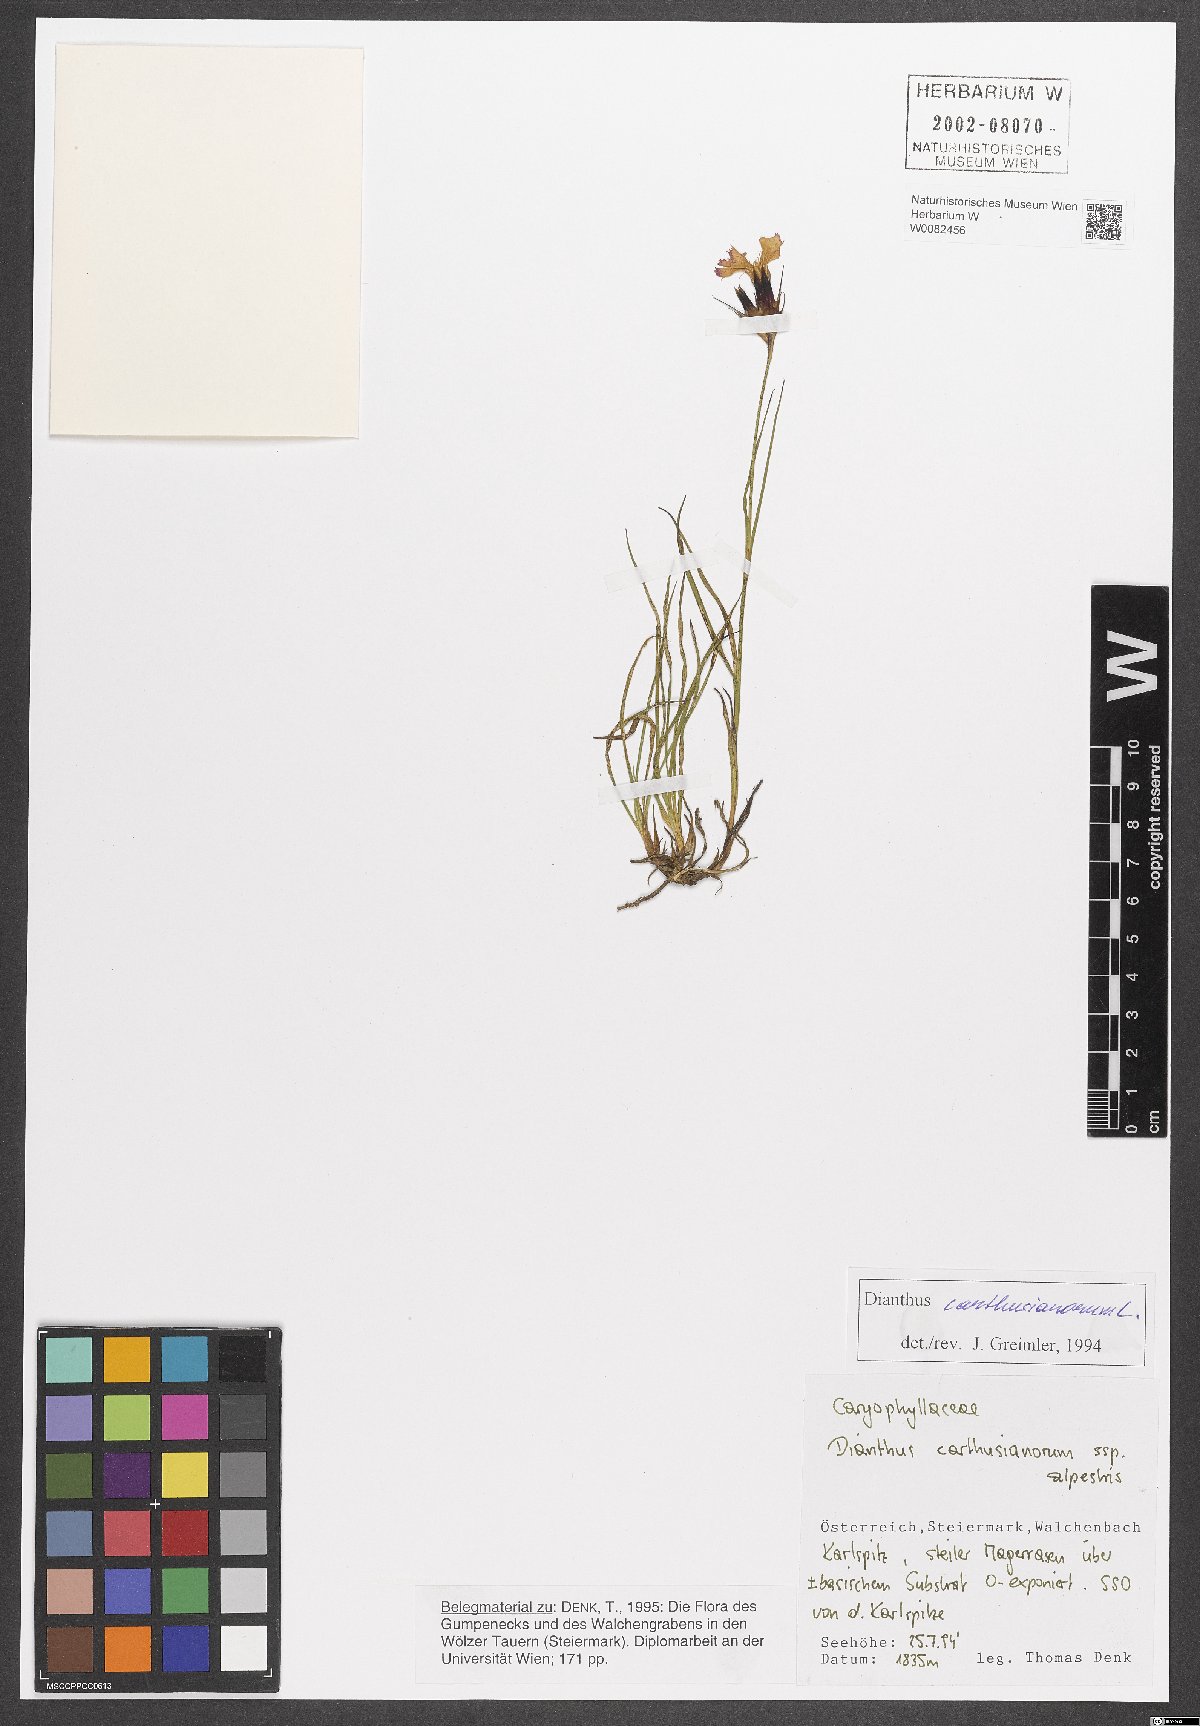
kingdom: Plantae
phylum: Tracheophyta
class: Magnoliopsida
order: Caryophyllales
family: Caryophyllaceae
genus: Dianthus
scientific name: Dianthus carthusianorum
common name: Carthusian pink
